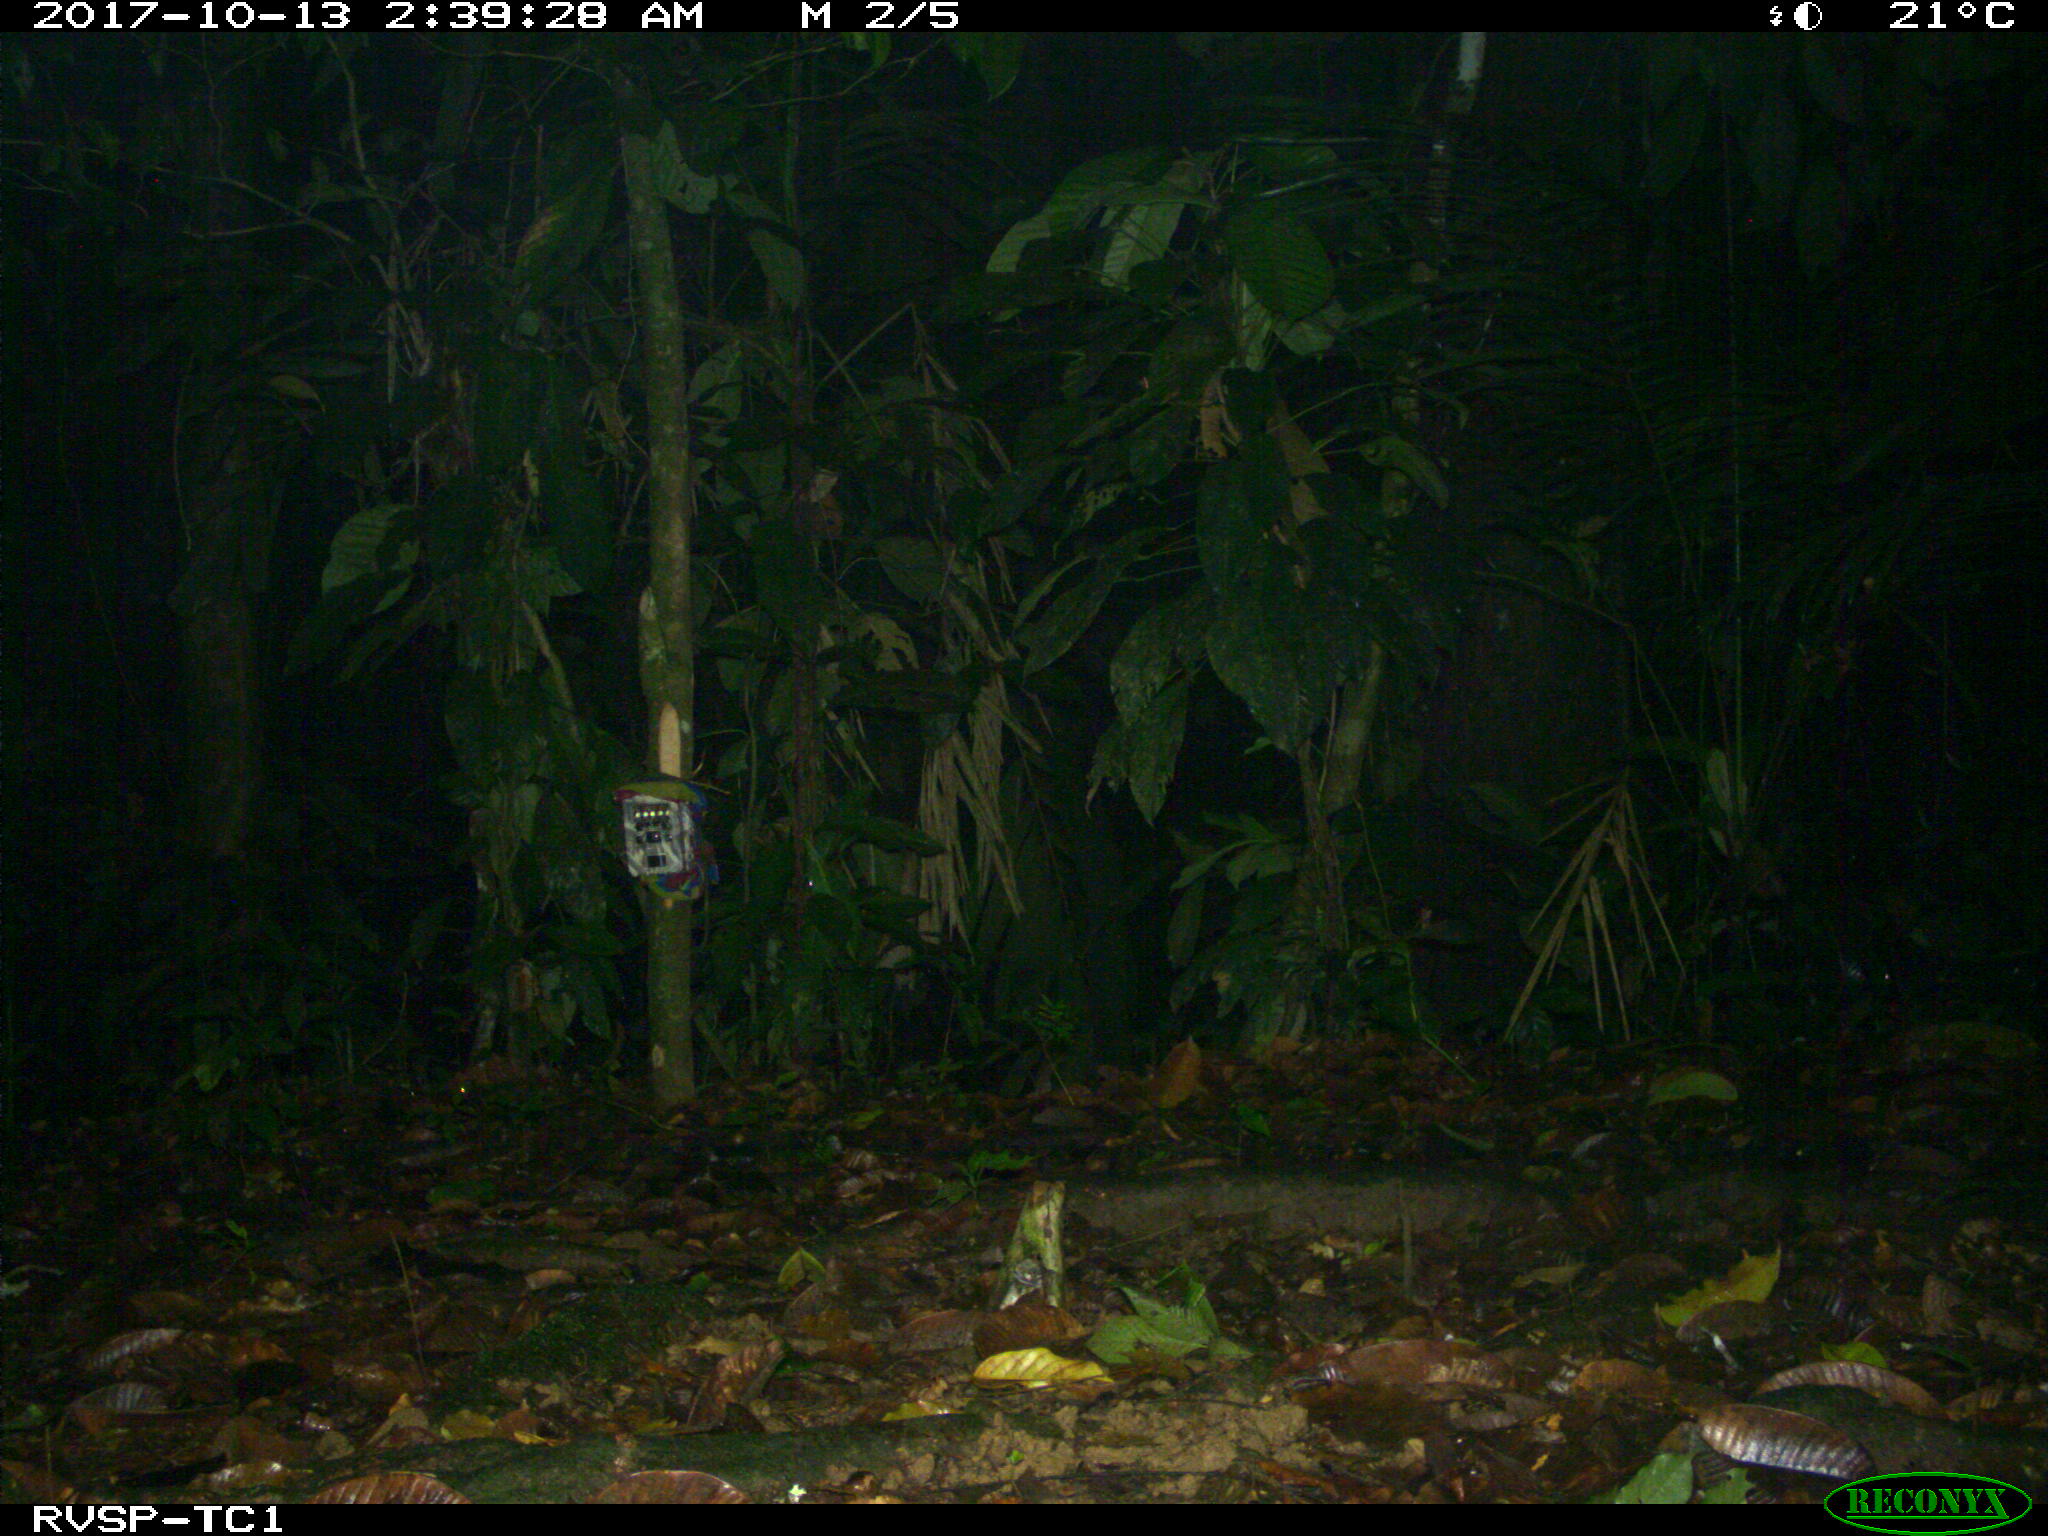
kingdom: Animalia
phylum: Chordata
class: Mammalia
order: Carnivora
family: Felidae
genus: Leopardus
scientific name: Leopardus pardalis
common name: Ocelot
